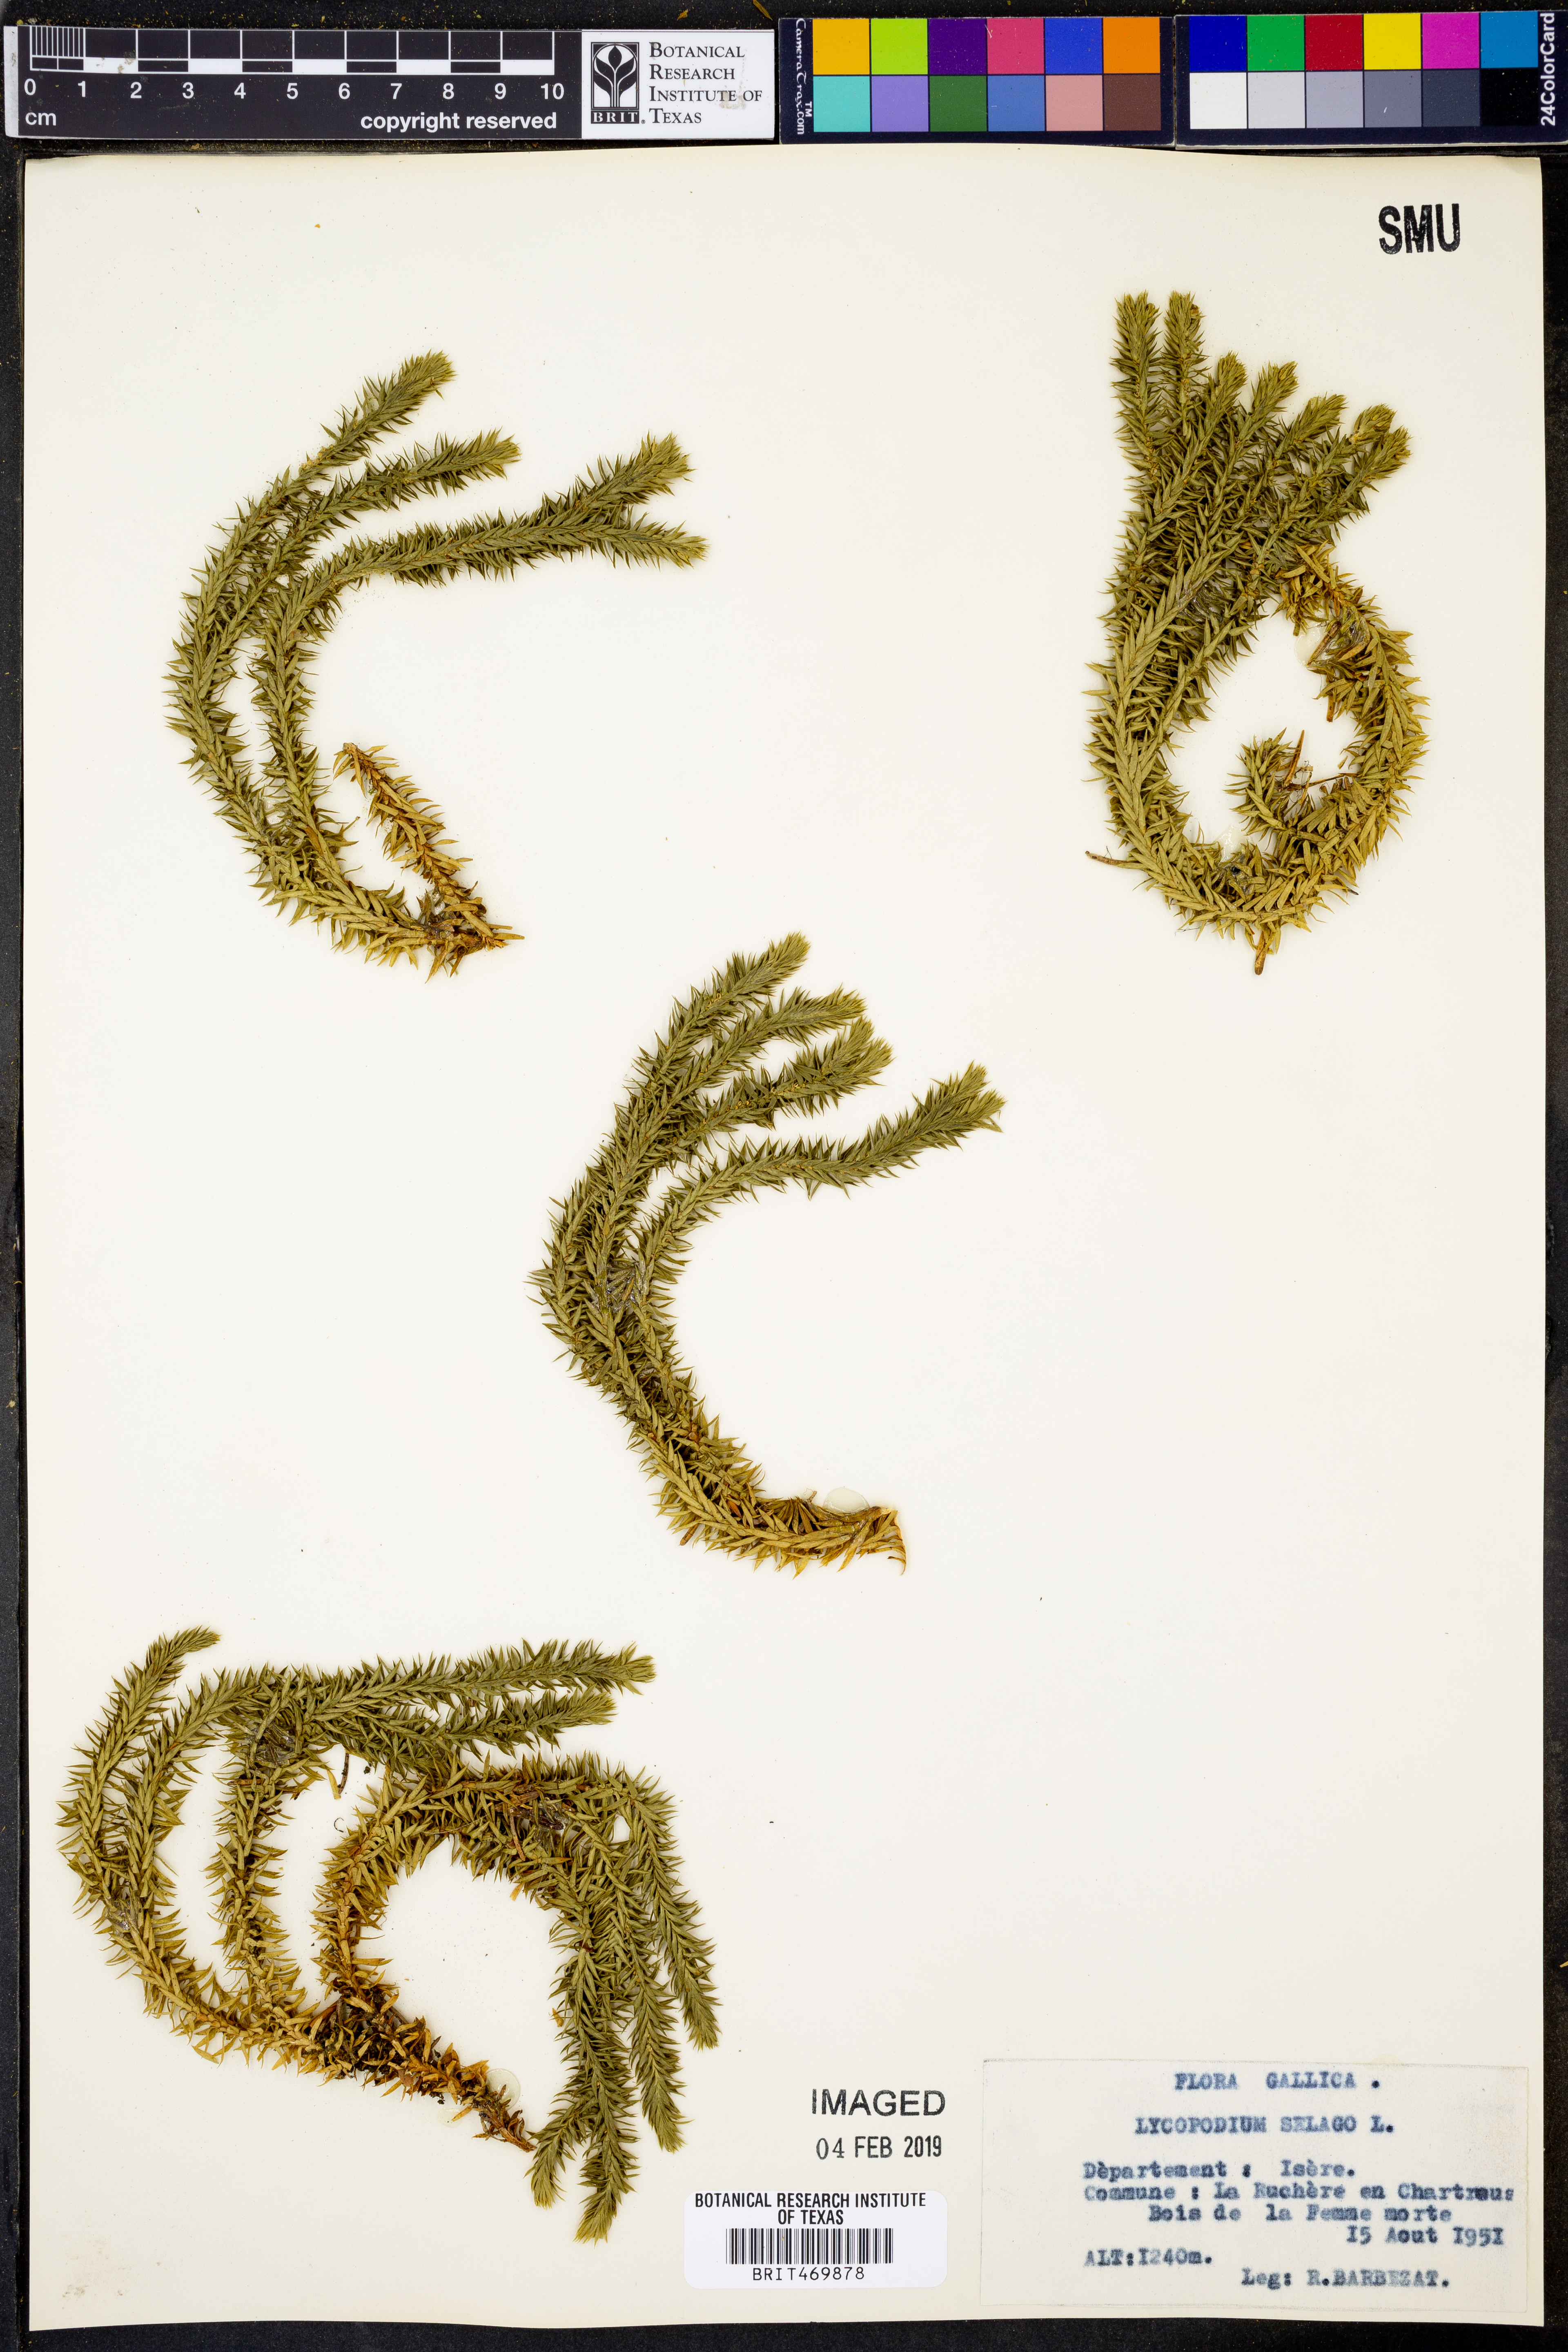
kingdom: Plantae
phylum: Tracheophyta
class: Lycopodiopsida
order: Lycopodiales
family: Lycopodiaceae
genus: Huperzia
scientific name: Huperzia selago
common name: Northern firmoss
